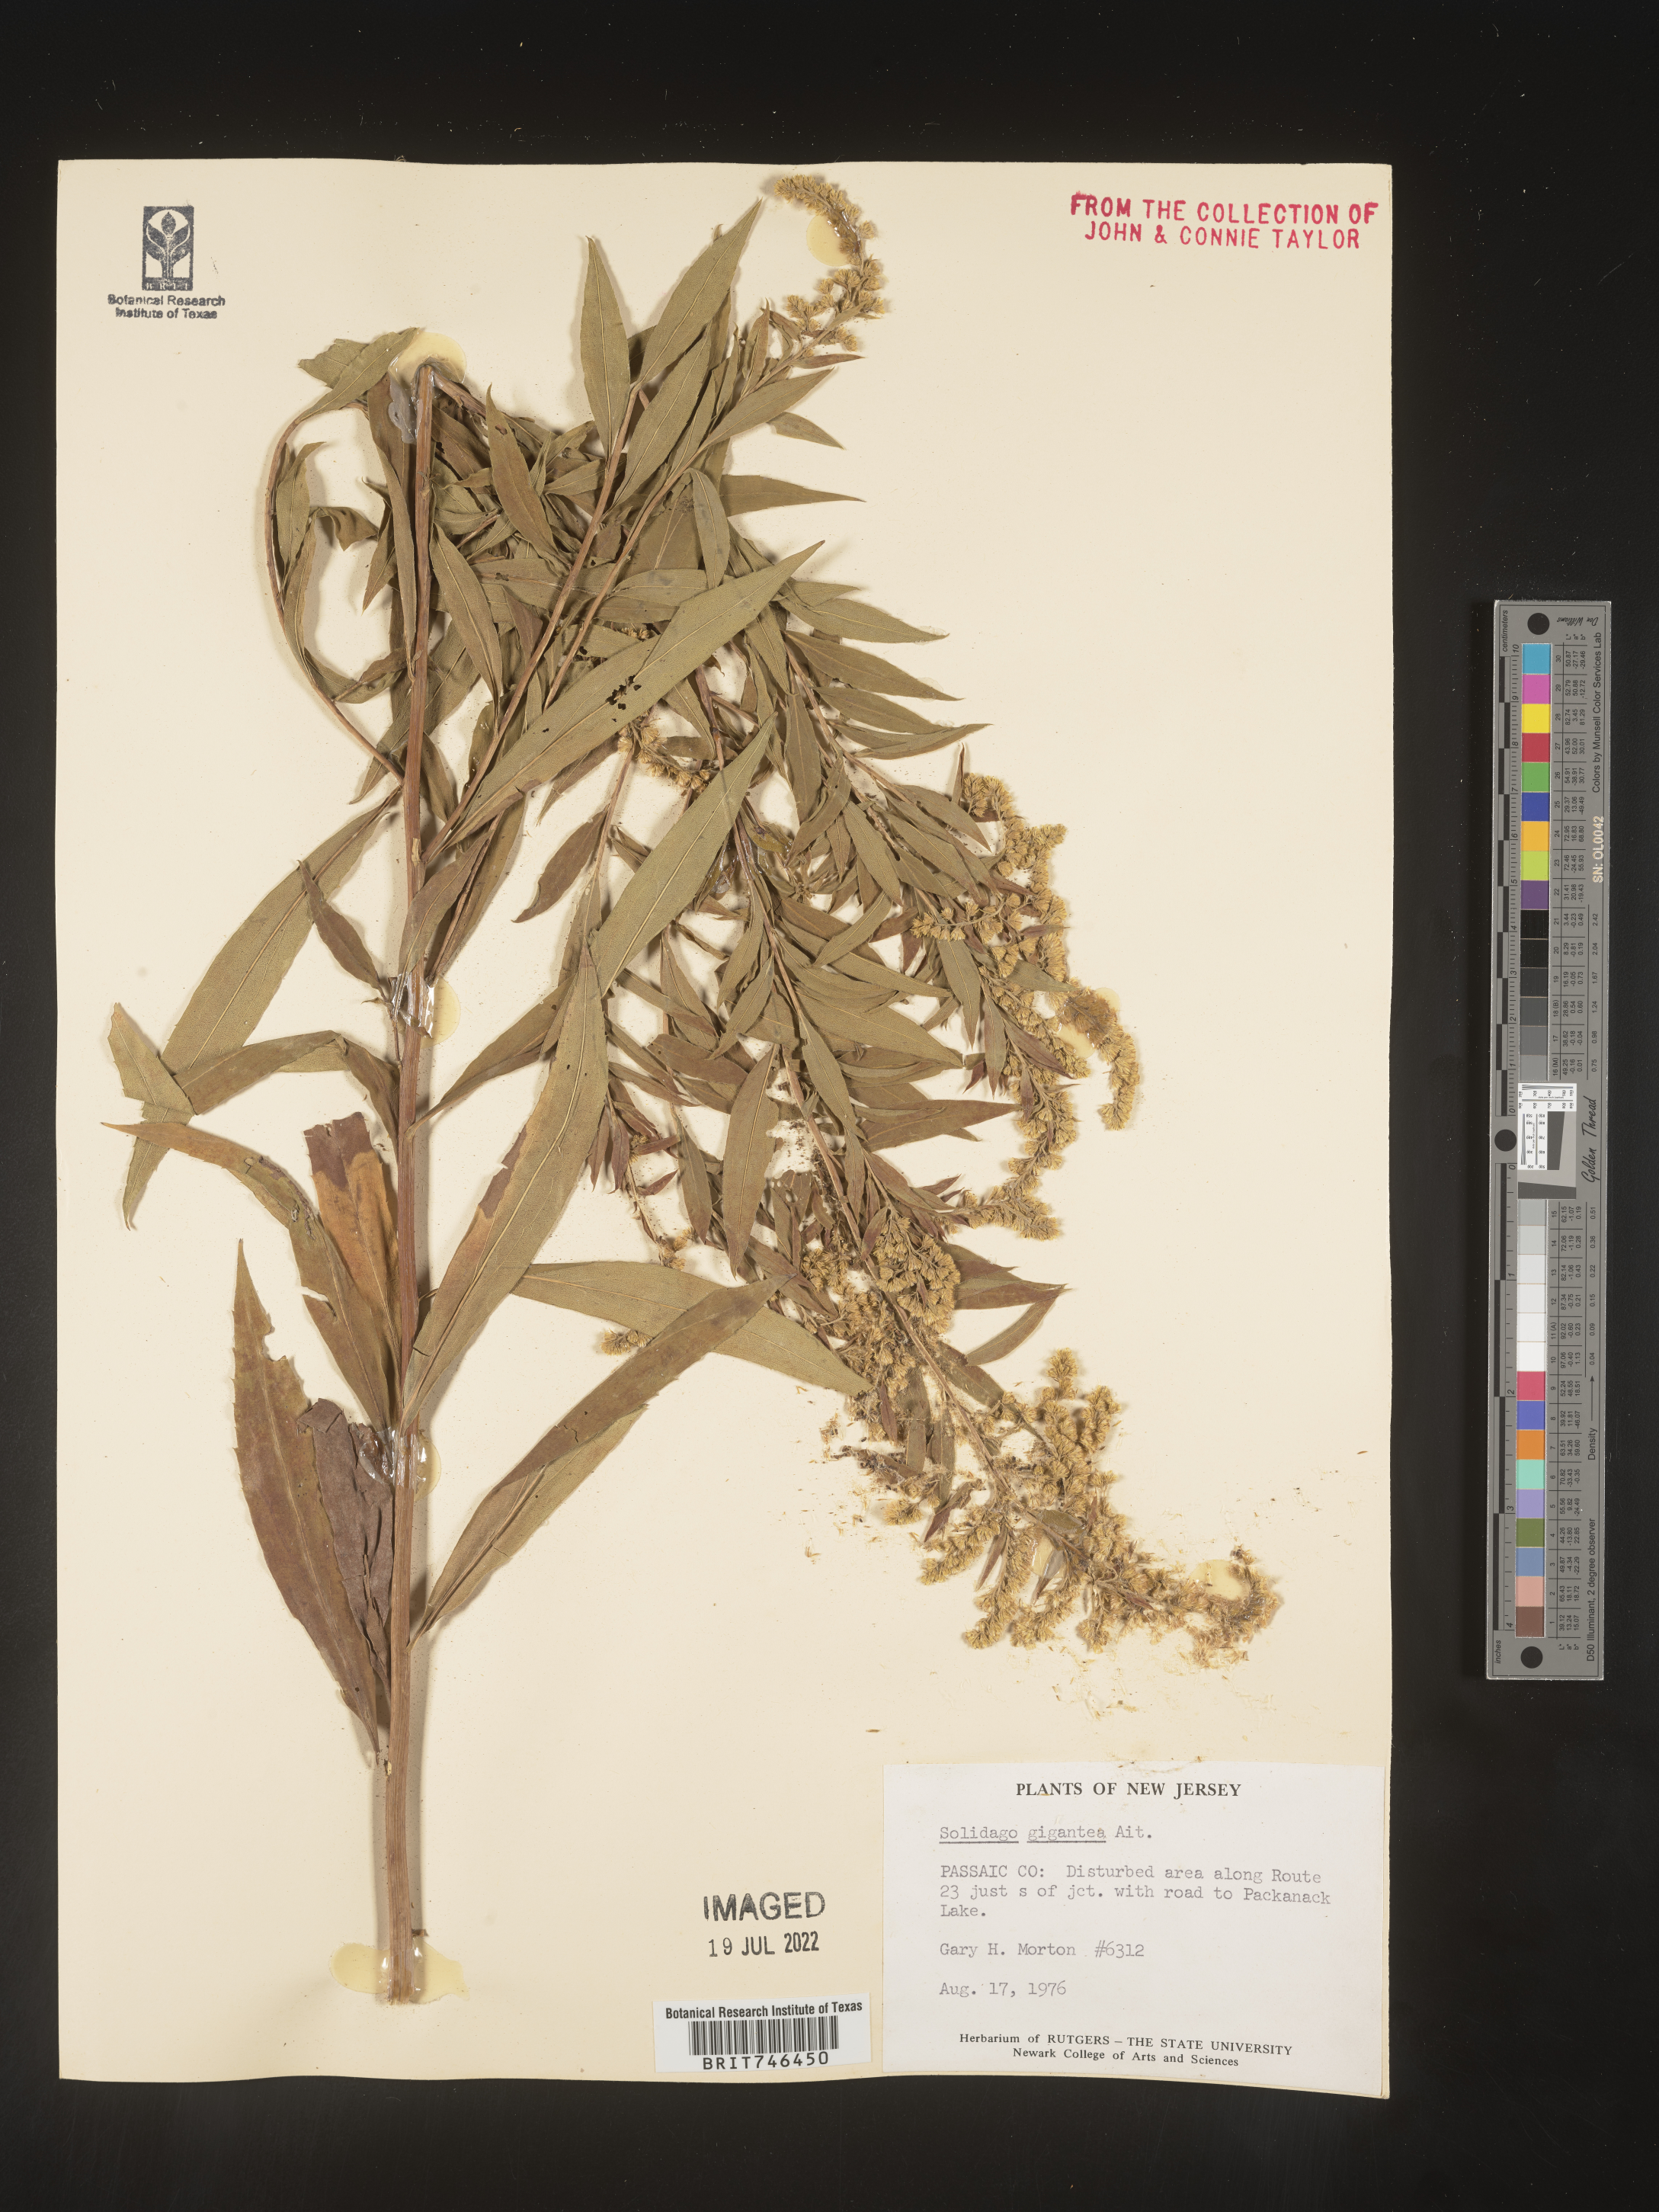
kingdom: Plantae
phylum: Tracheophyta
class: Magnoliopsida
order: Asterales
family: Asteraceae
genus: Solidago
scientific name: Solidago gigantea
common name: Giant goldenrod
